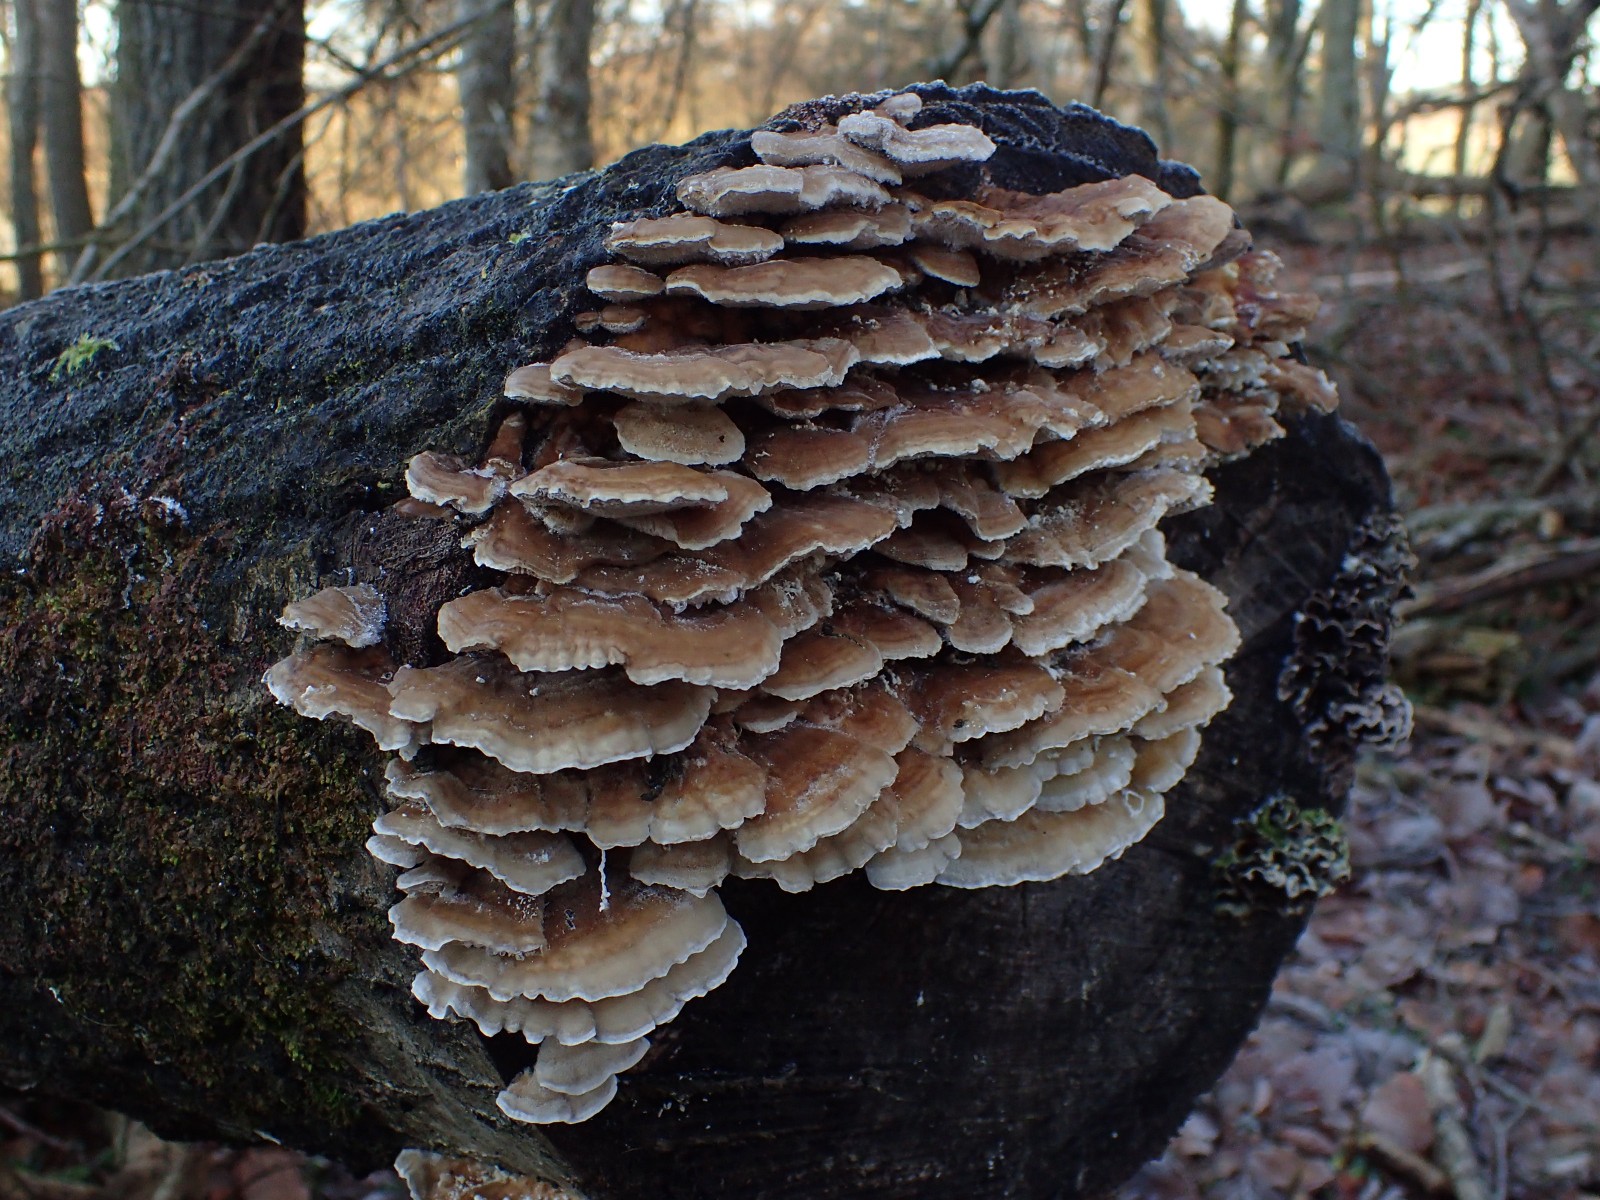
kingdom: Fungi
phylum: Basidiomycota
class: Agaricomycetes
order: Polyporales
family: Polyporaceae
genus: Trametes
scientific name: Trametes ochracea
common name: bæltet læderporesvamp
